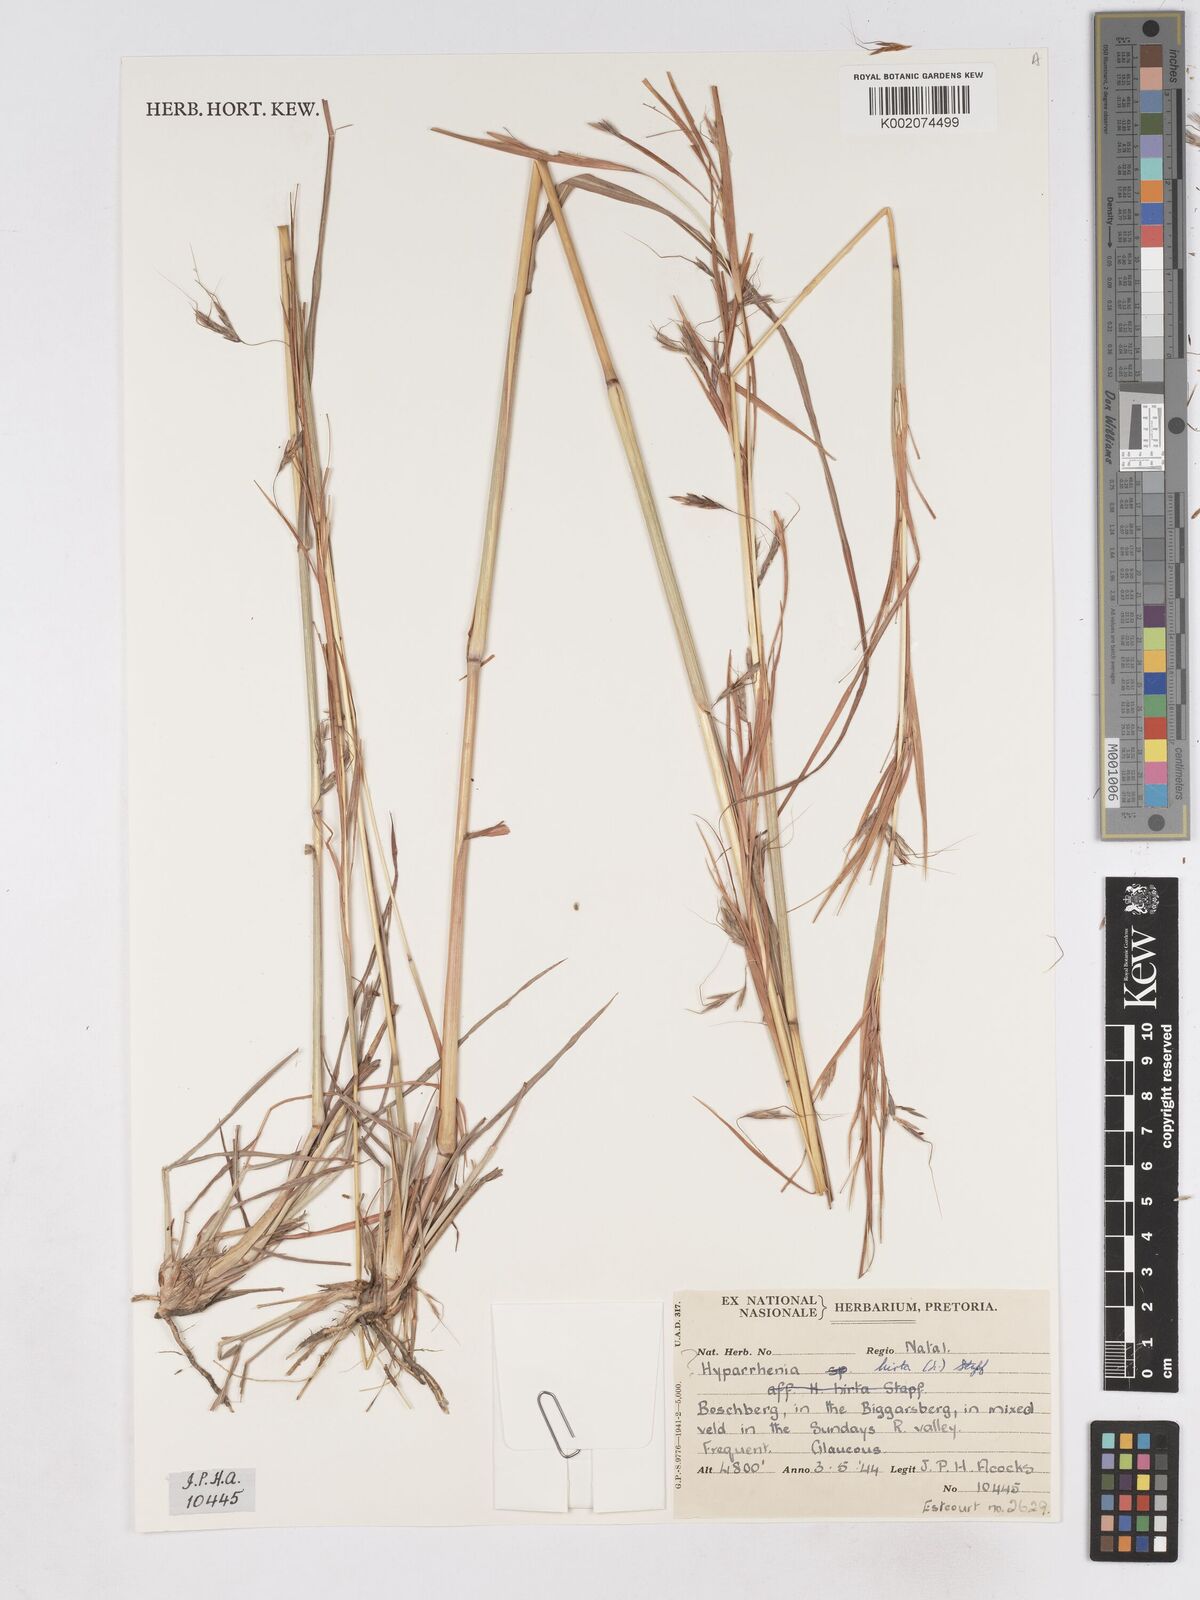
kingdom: Plantae
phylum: Tracheophyta
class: Liliopsida
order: Poales
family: Poaceae
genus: Hyparrhenia
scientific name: Hyparrhenia hirta
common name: Thatching grass
